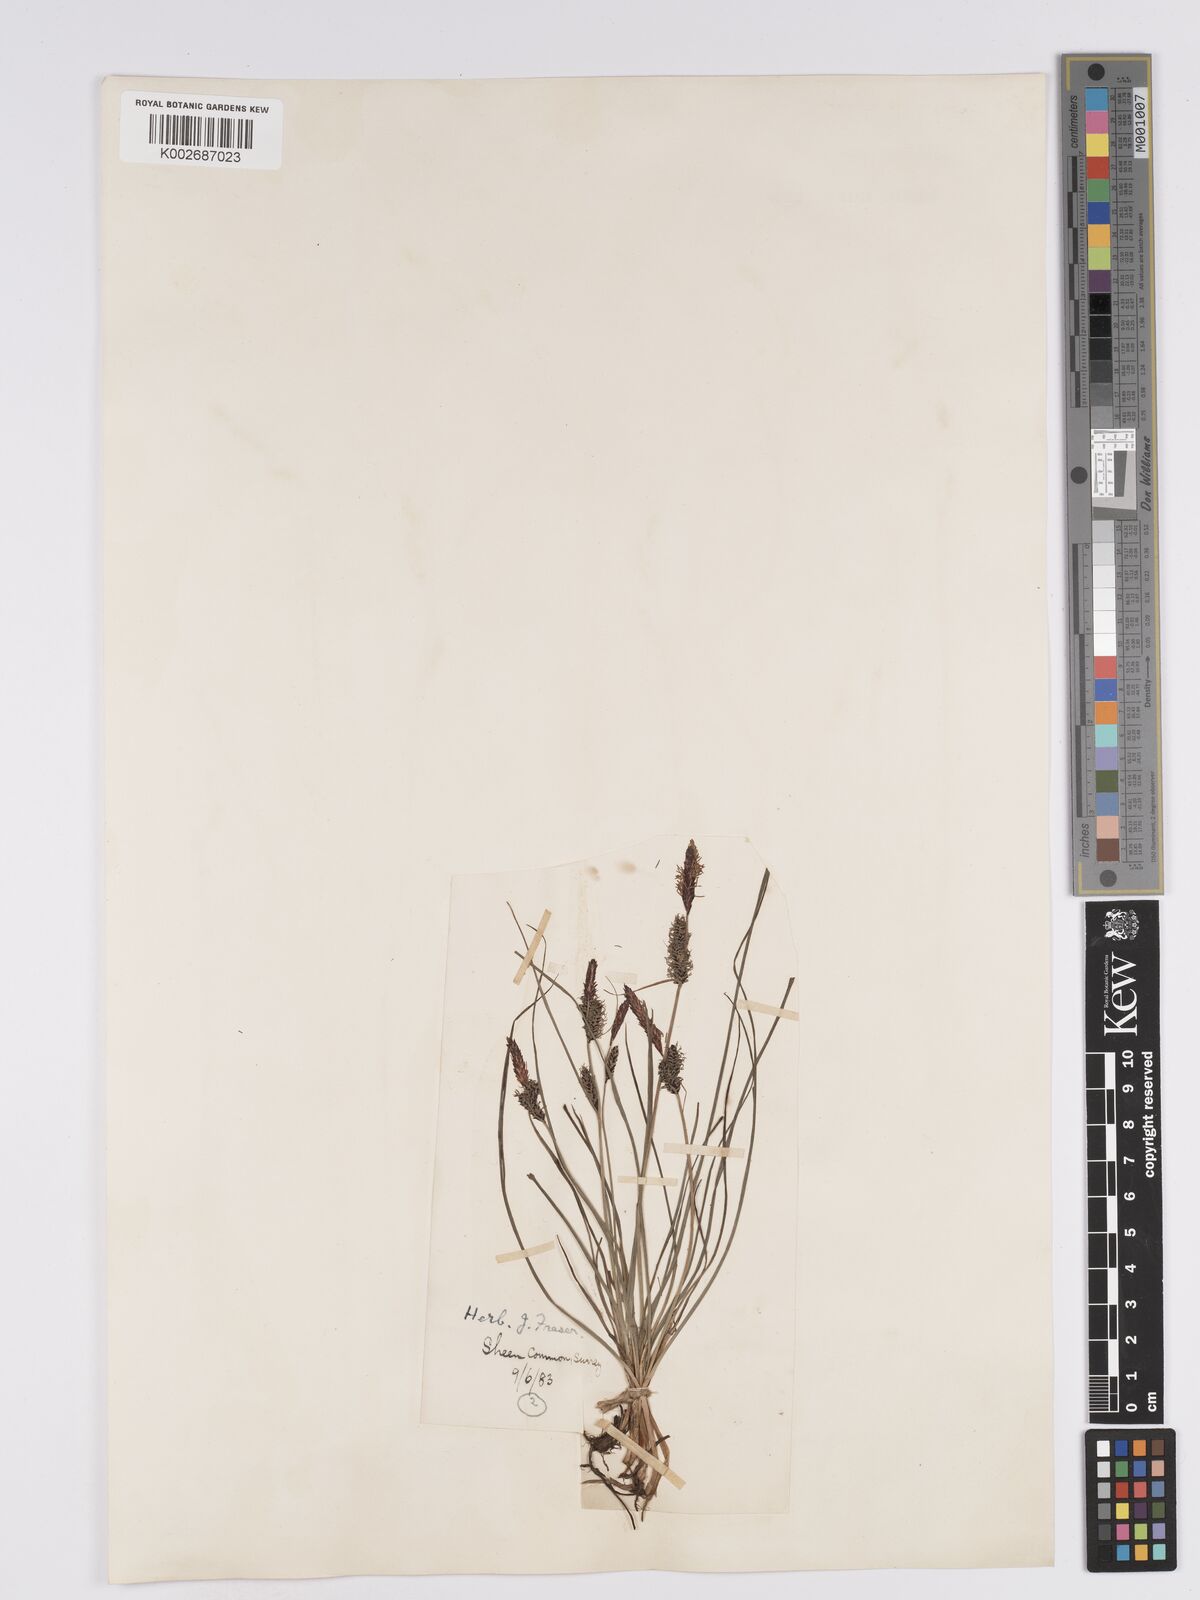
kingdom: Plantae
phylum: Tracheophyta
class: Liliopsida
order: Poales
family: Cyperaceae
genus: Carex
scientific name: Carex nigra
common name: Common sedge
